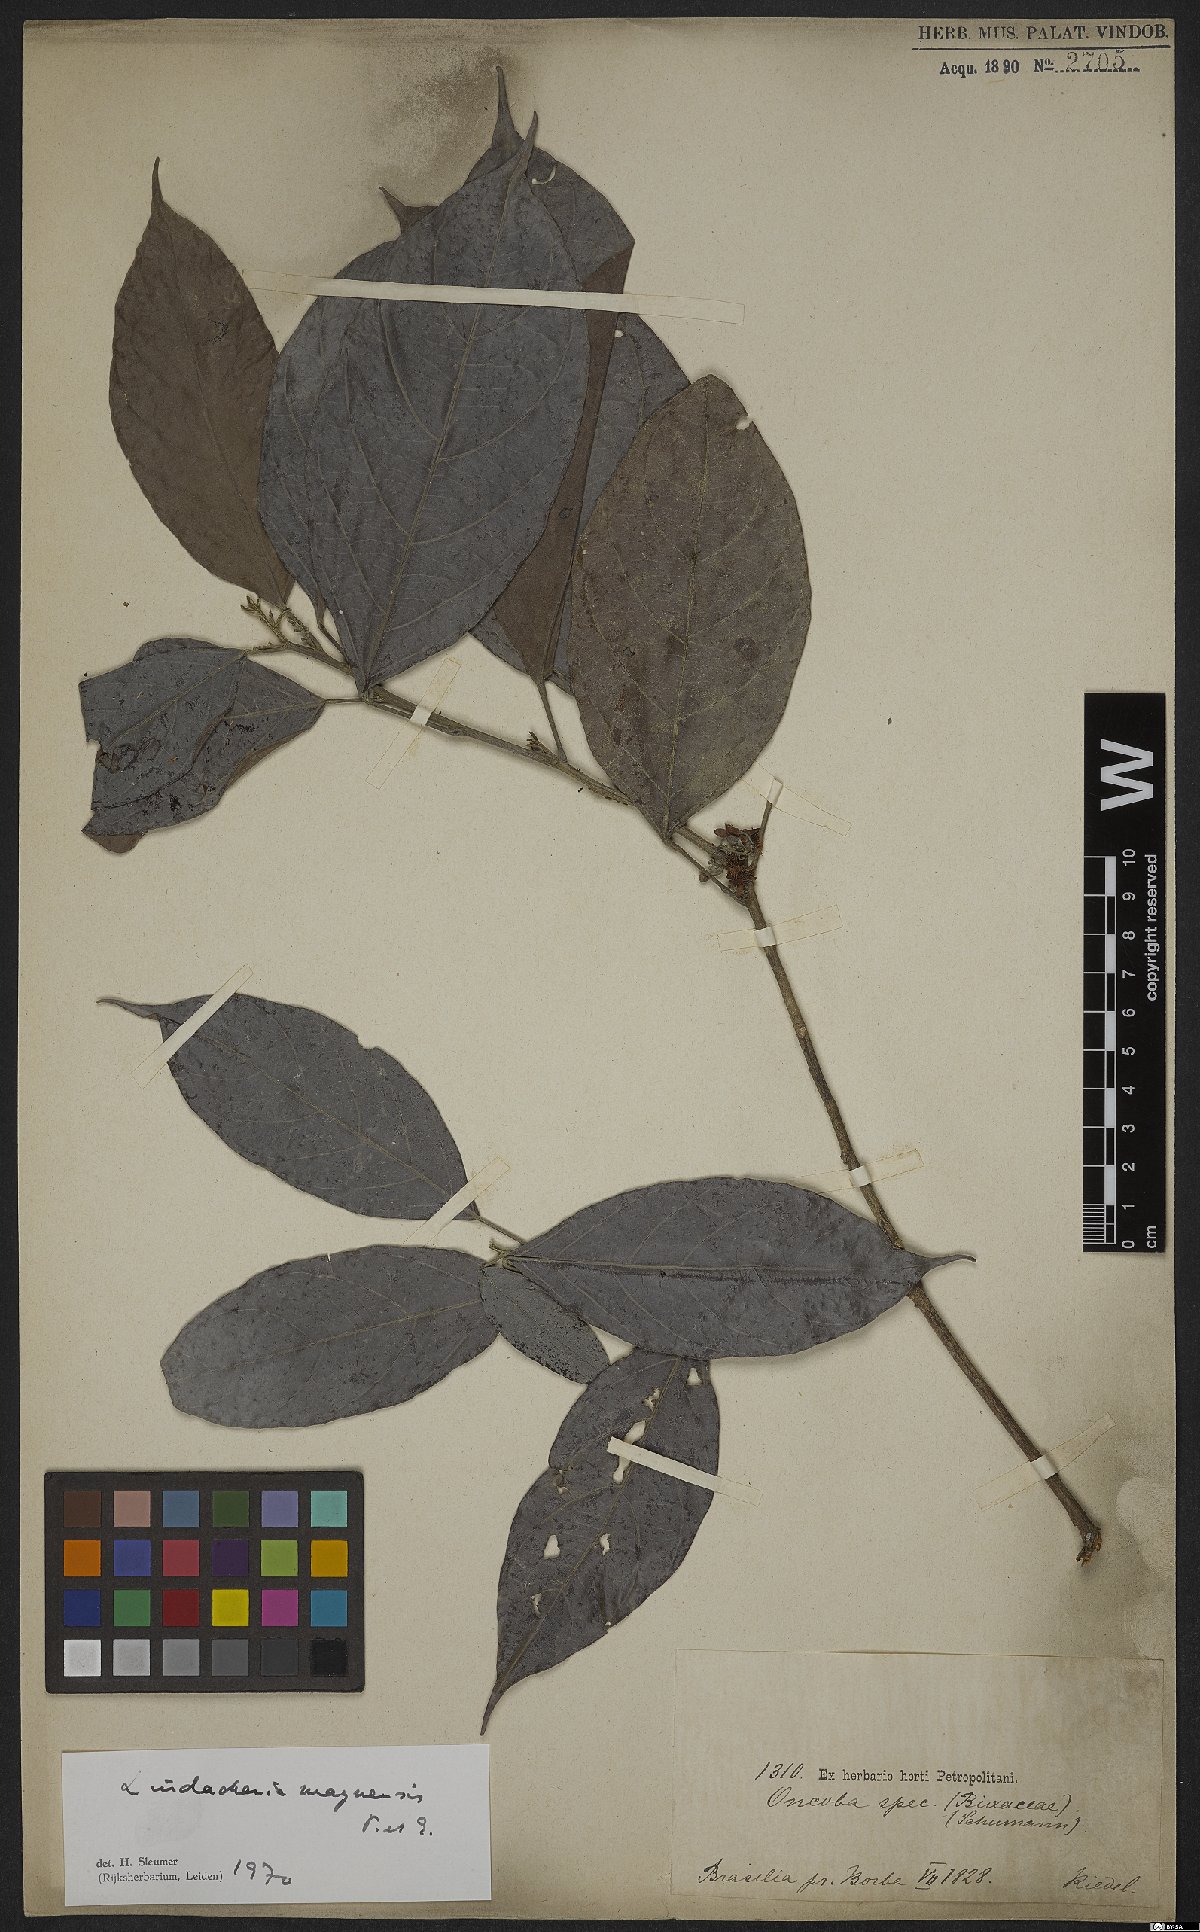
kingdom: Plantae
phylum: Tracheophyta
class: Magnoliopsida
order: Malpighiales
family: Achariaceae
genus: Lindackeria
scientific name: Lindackeria paludosa
